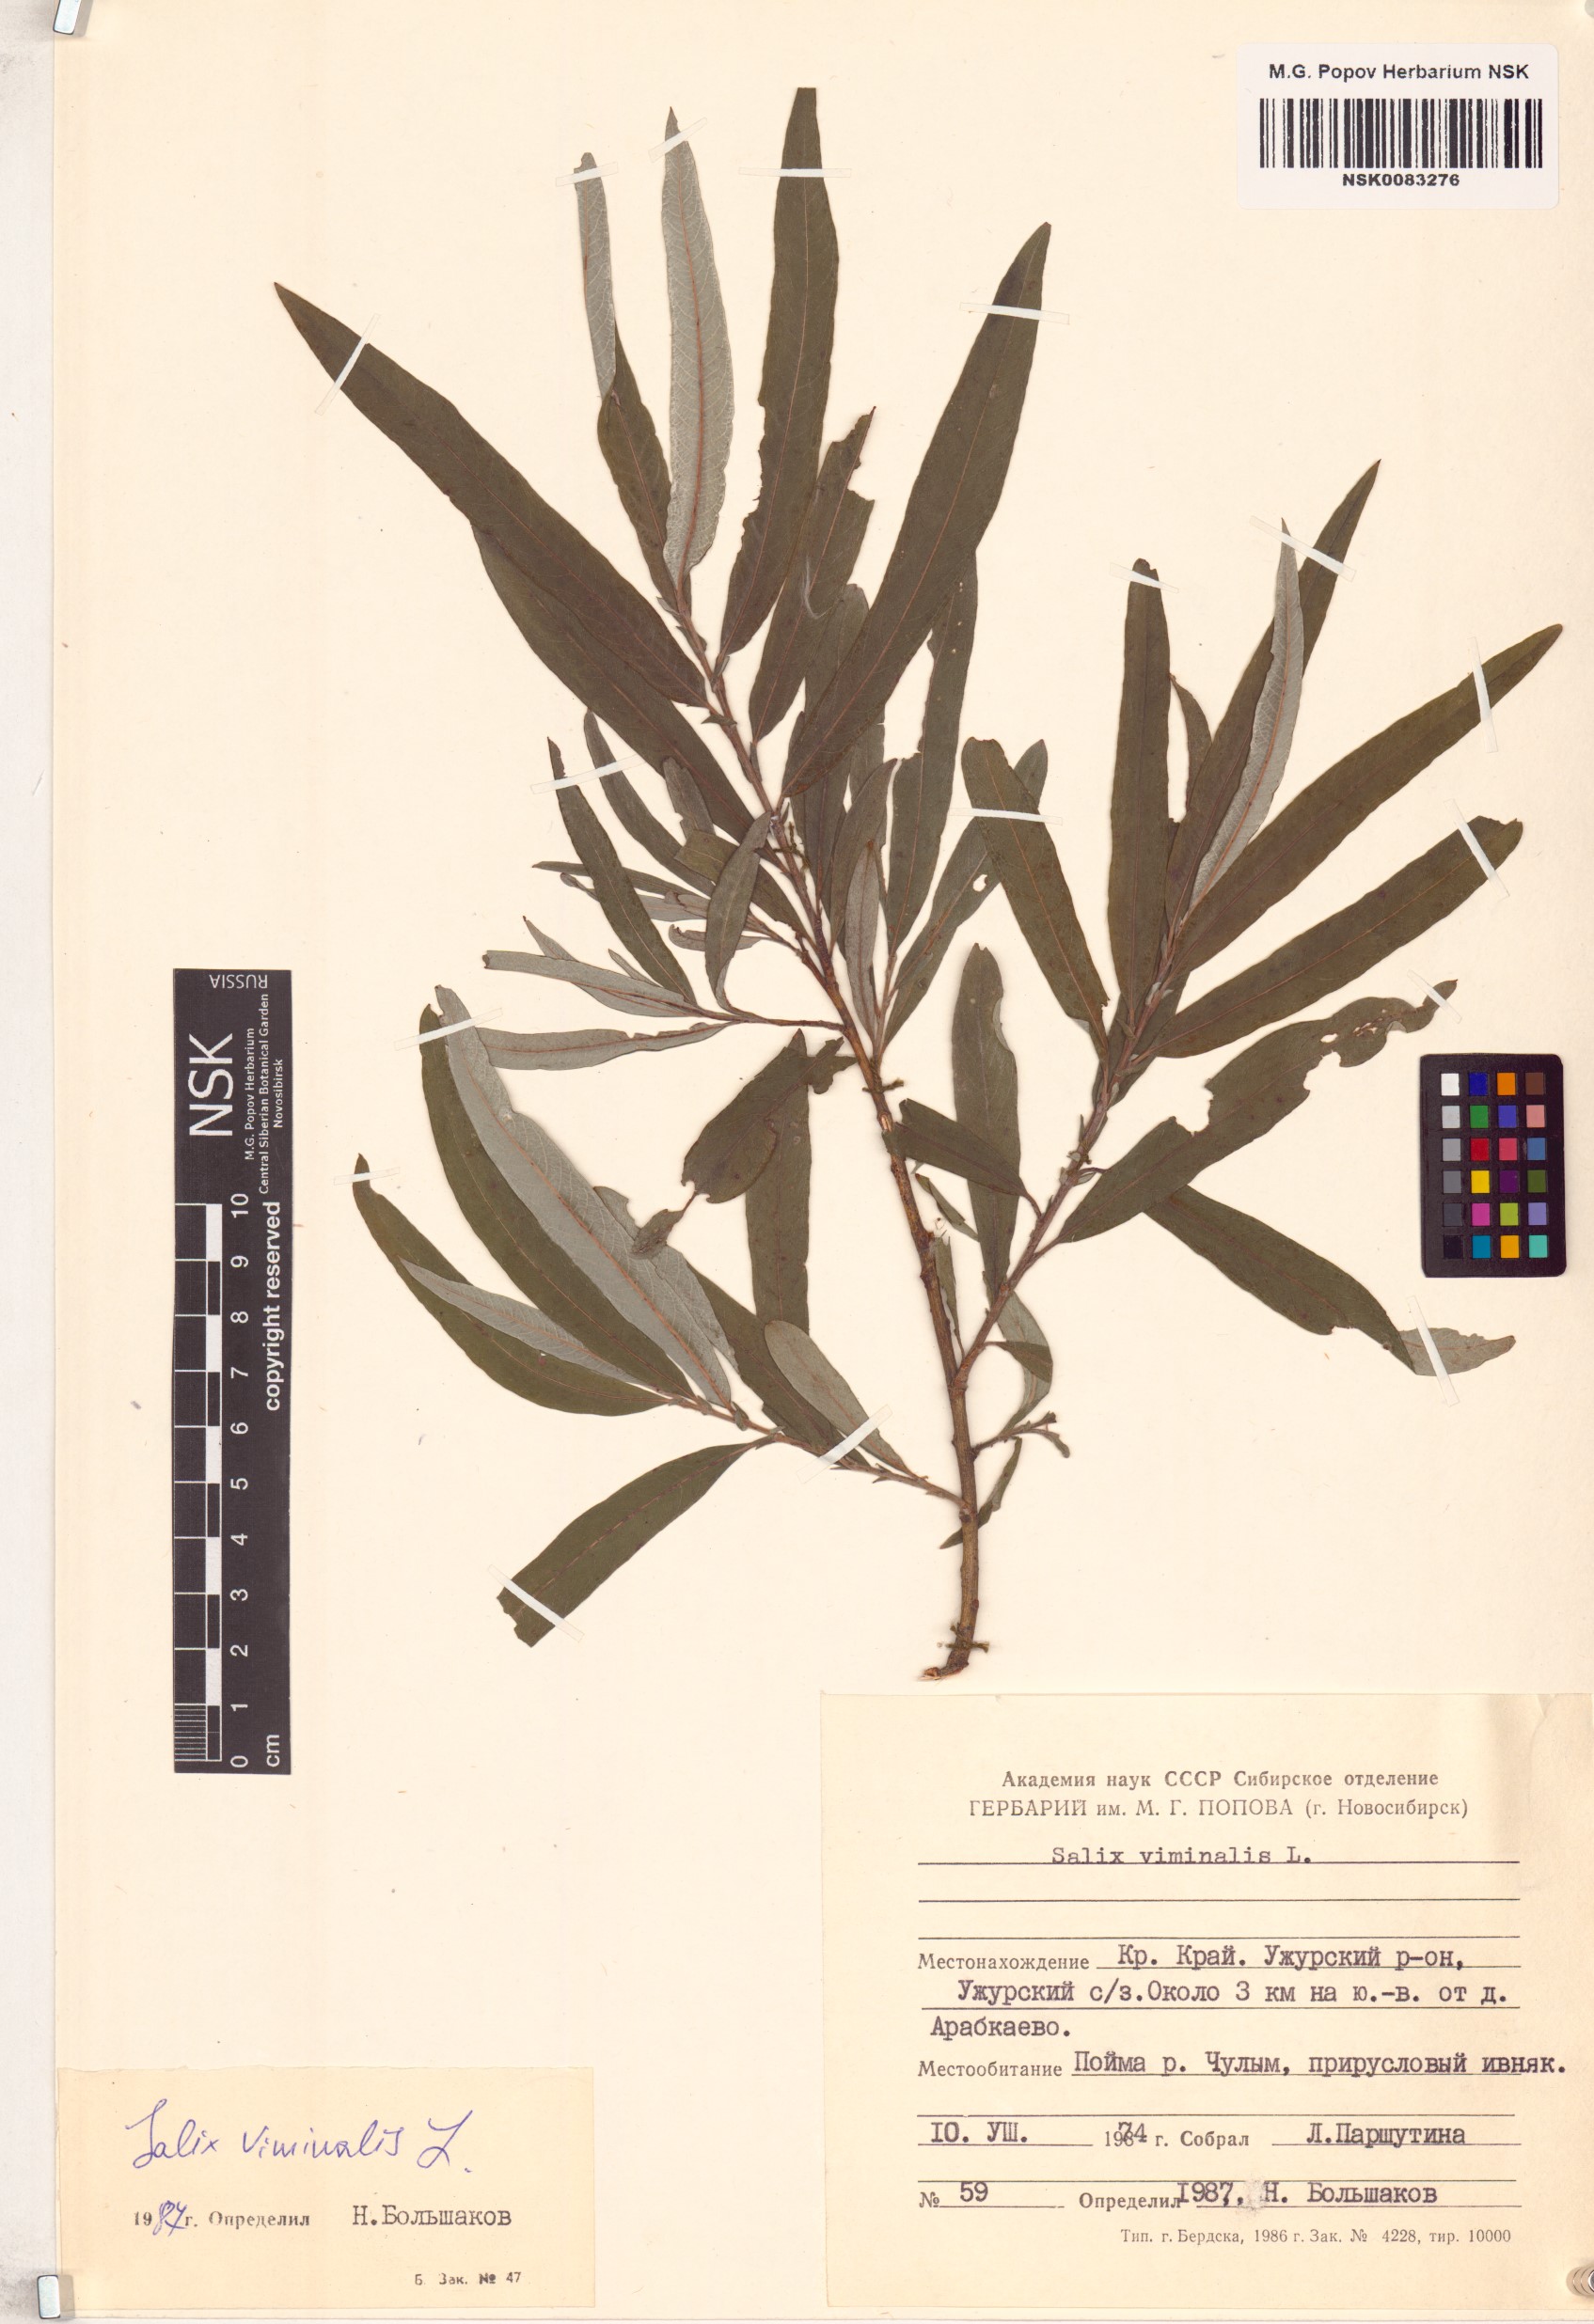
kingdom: Plantae
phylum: Tracheophyta
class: Magnoliopsida
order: Malpighiales
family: Salicaceae
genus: Salix
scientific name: Salix viminalis
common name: Osier
